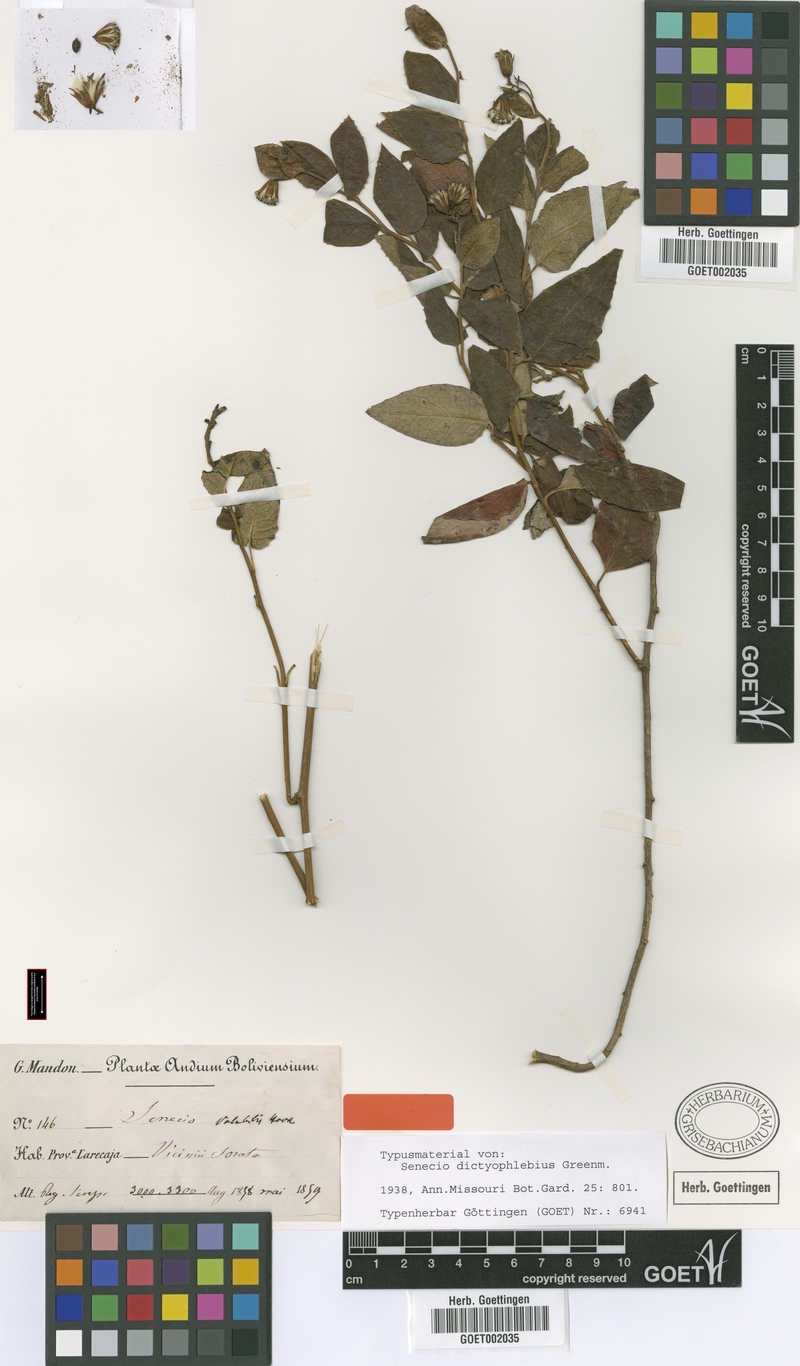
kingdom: Plantae
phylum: Tracheophyta
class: Magnoliopsida
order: Asterales
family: Asteraceae
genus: Pentacalia
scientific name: Pentacalia dictyophlebia
